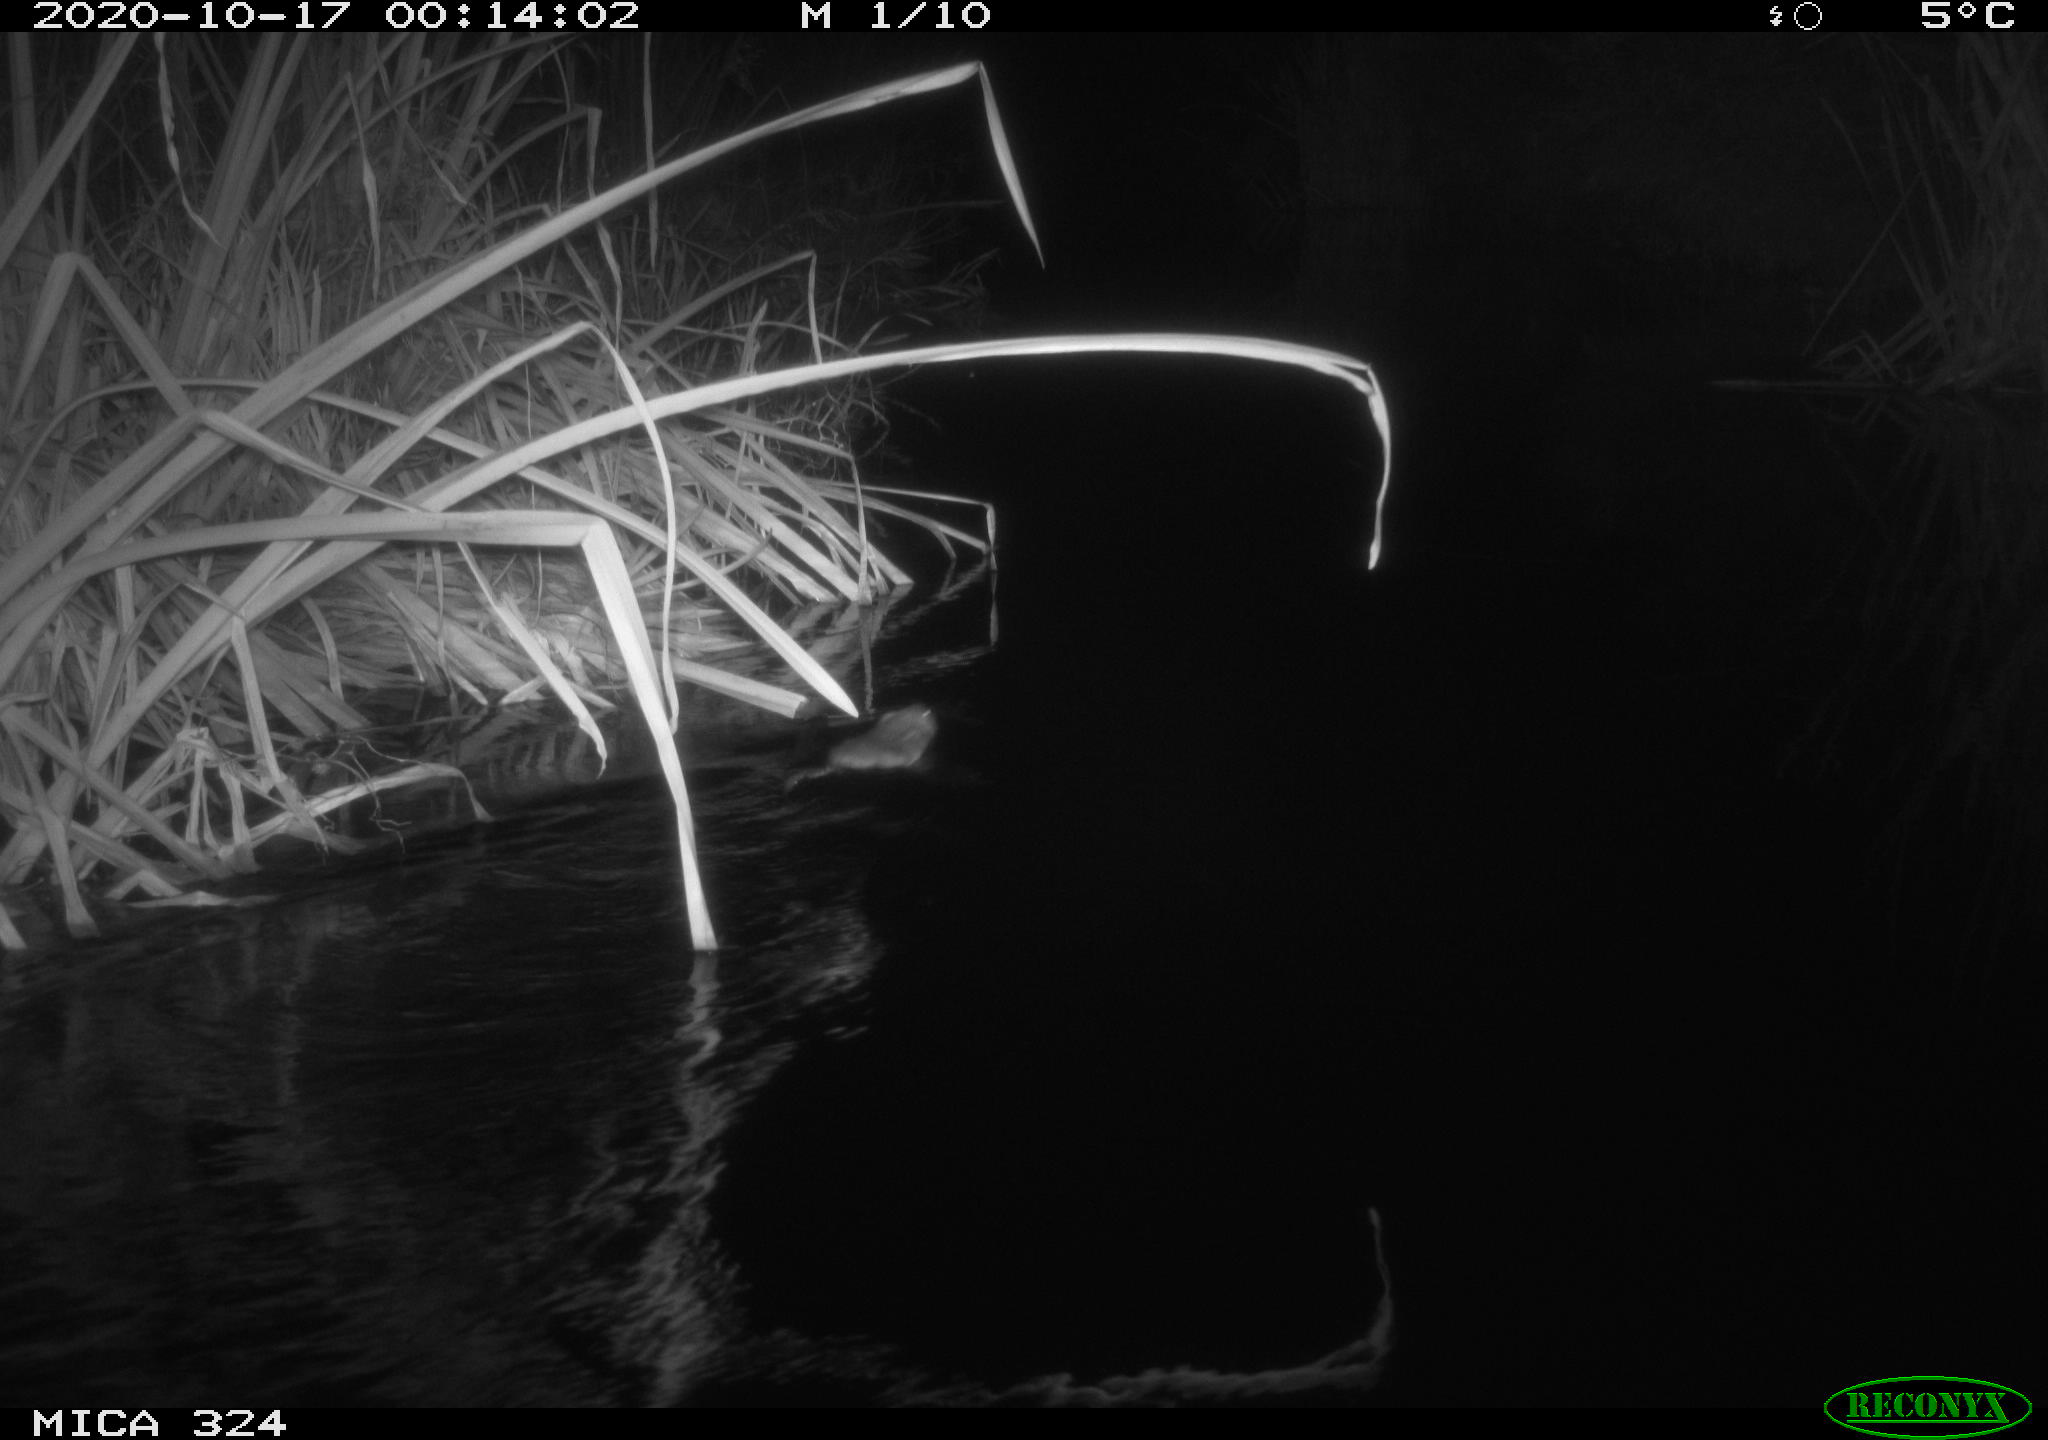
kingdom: Animalia
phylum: Chordata
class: Mammalia
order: Rodentia
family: Cricetidae
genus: Ondatra
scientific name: Ondatra zibethicus
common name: Muskrat
